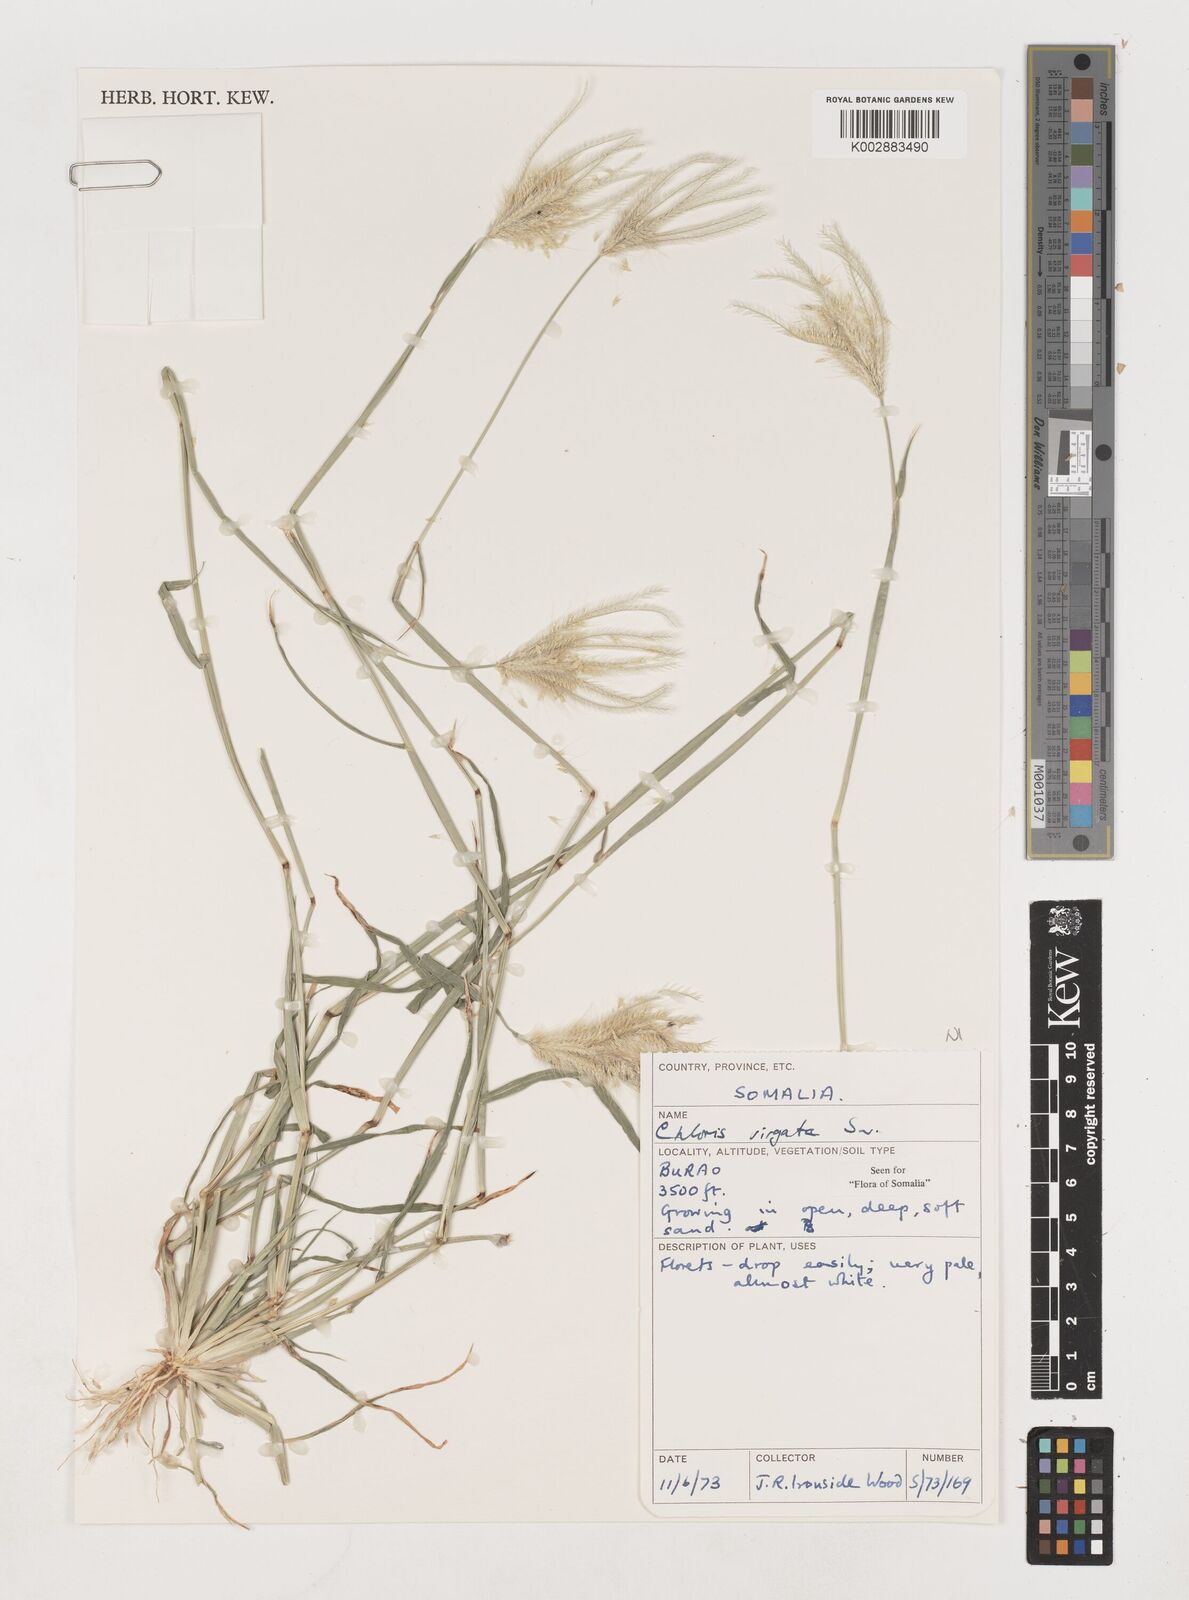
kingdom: Plantae
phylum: Tracheophyta
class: Liliopsida
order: Poales
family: Poaceae
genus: Chloris
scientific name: Chloris virgata
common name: Feathery rhodes-grass
